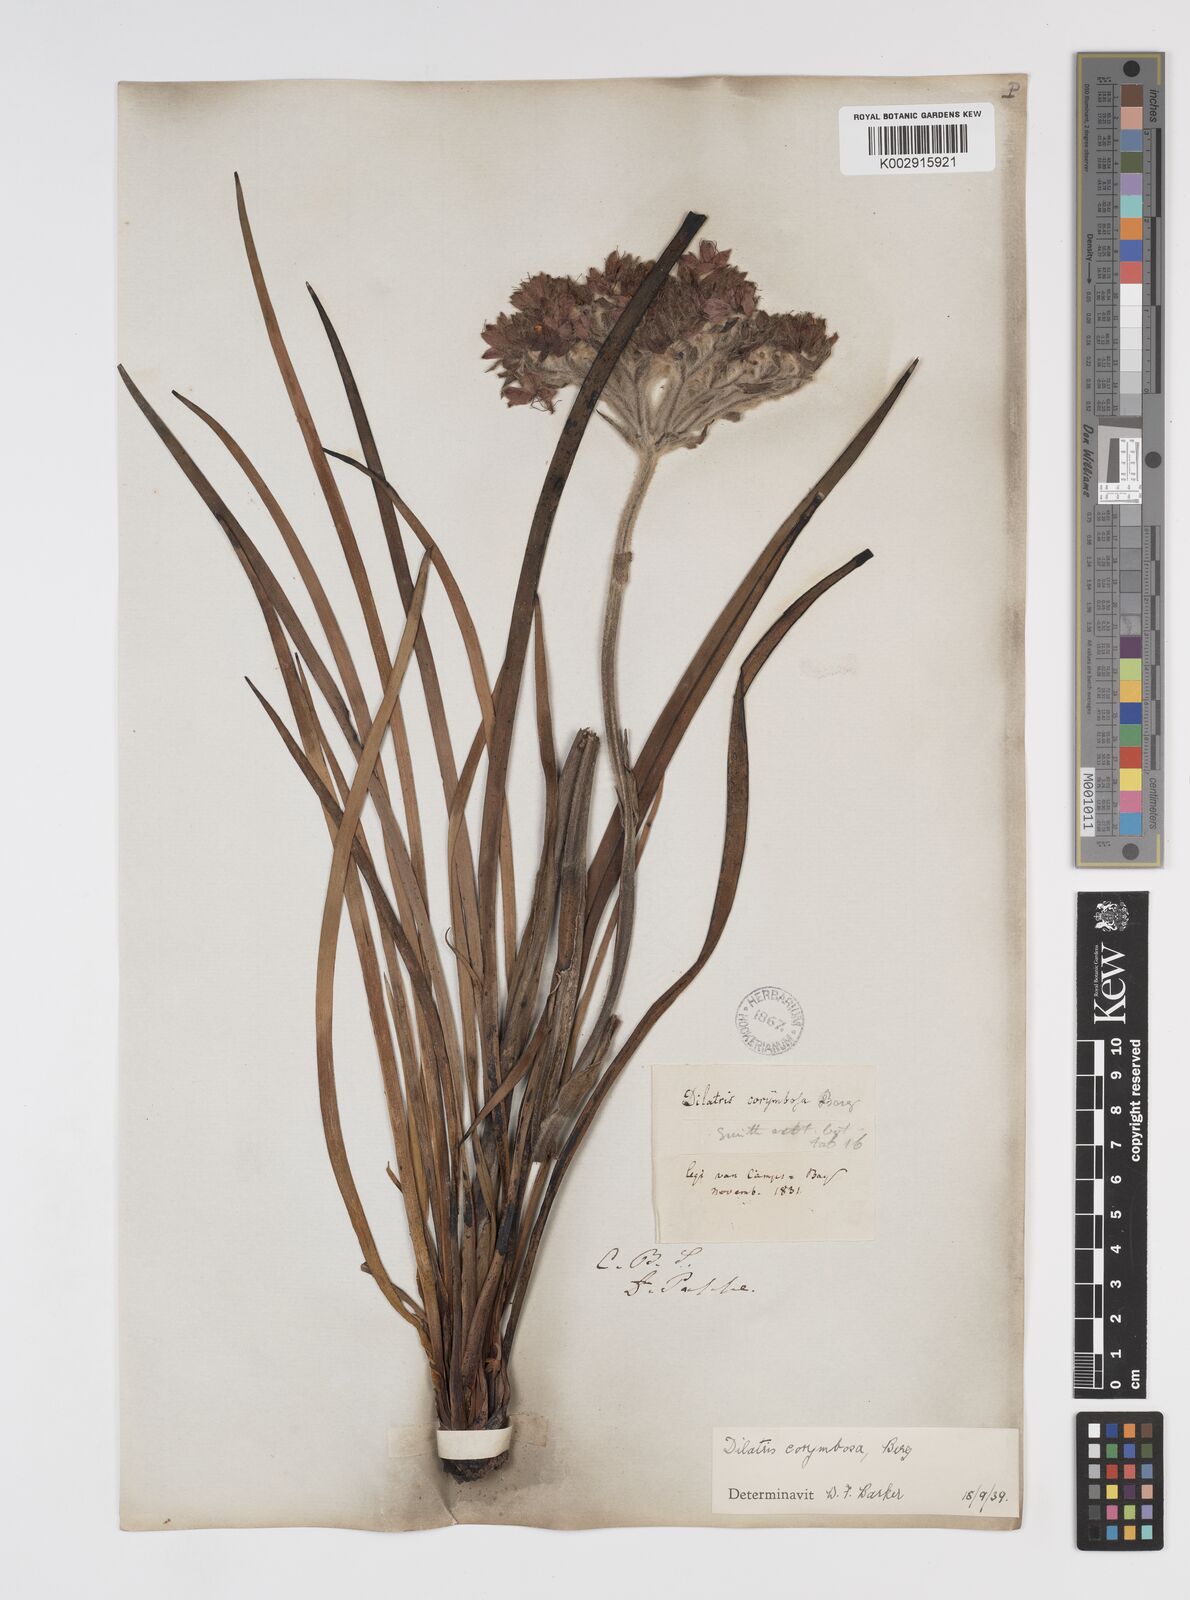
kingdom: Plantae
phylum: Tracheophyta
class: Liliopsida
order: Commelinales
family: Haemodoraceae
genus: Dilatris
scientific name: Dilatris corymbosa
